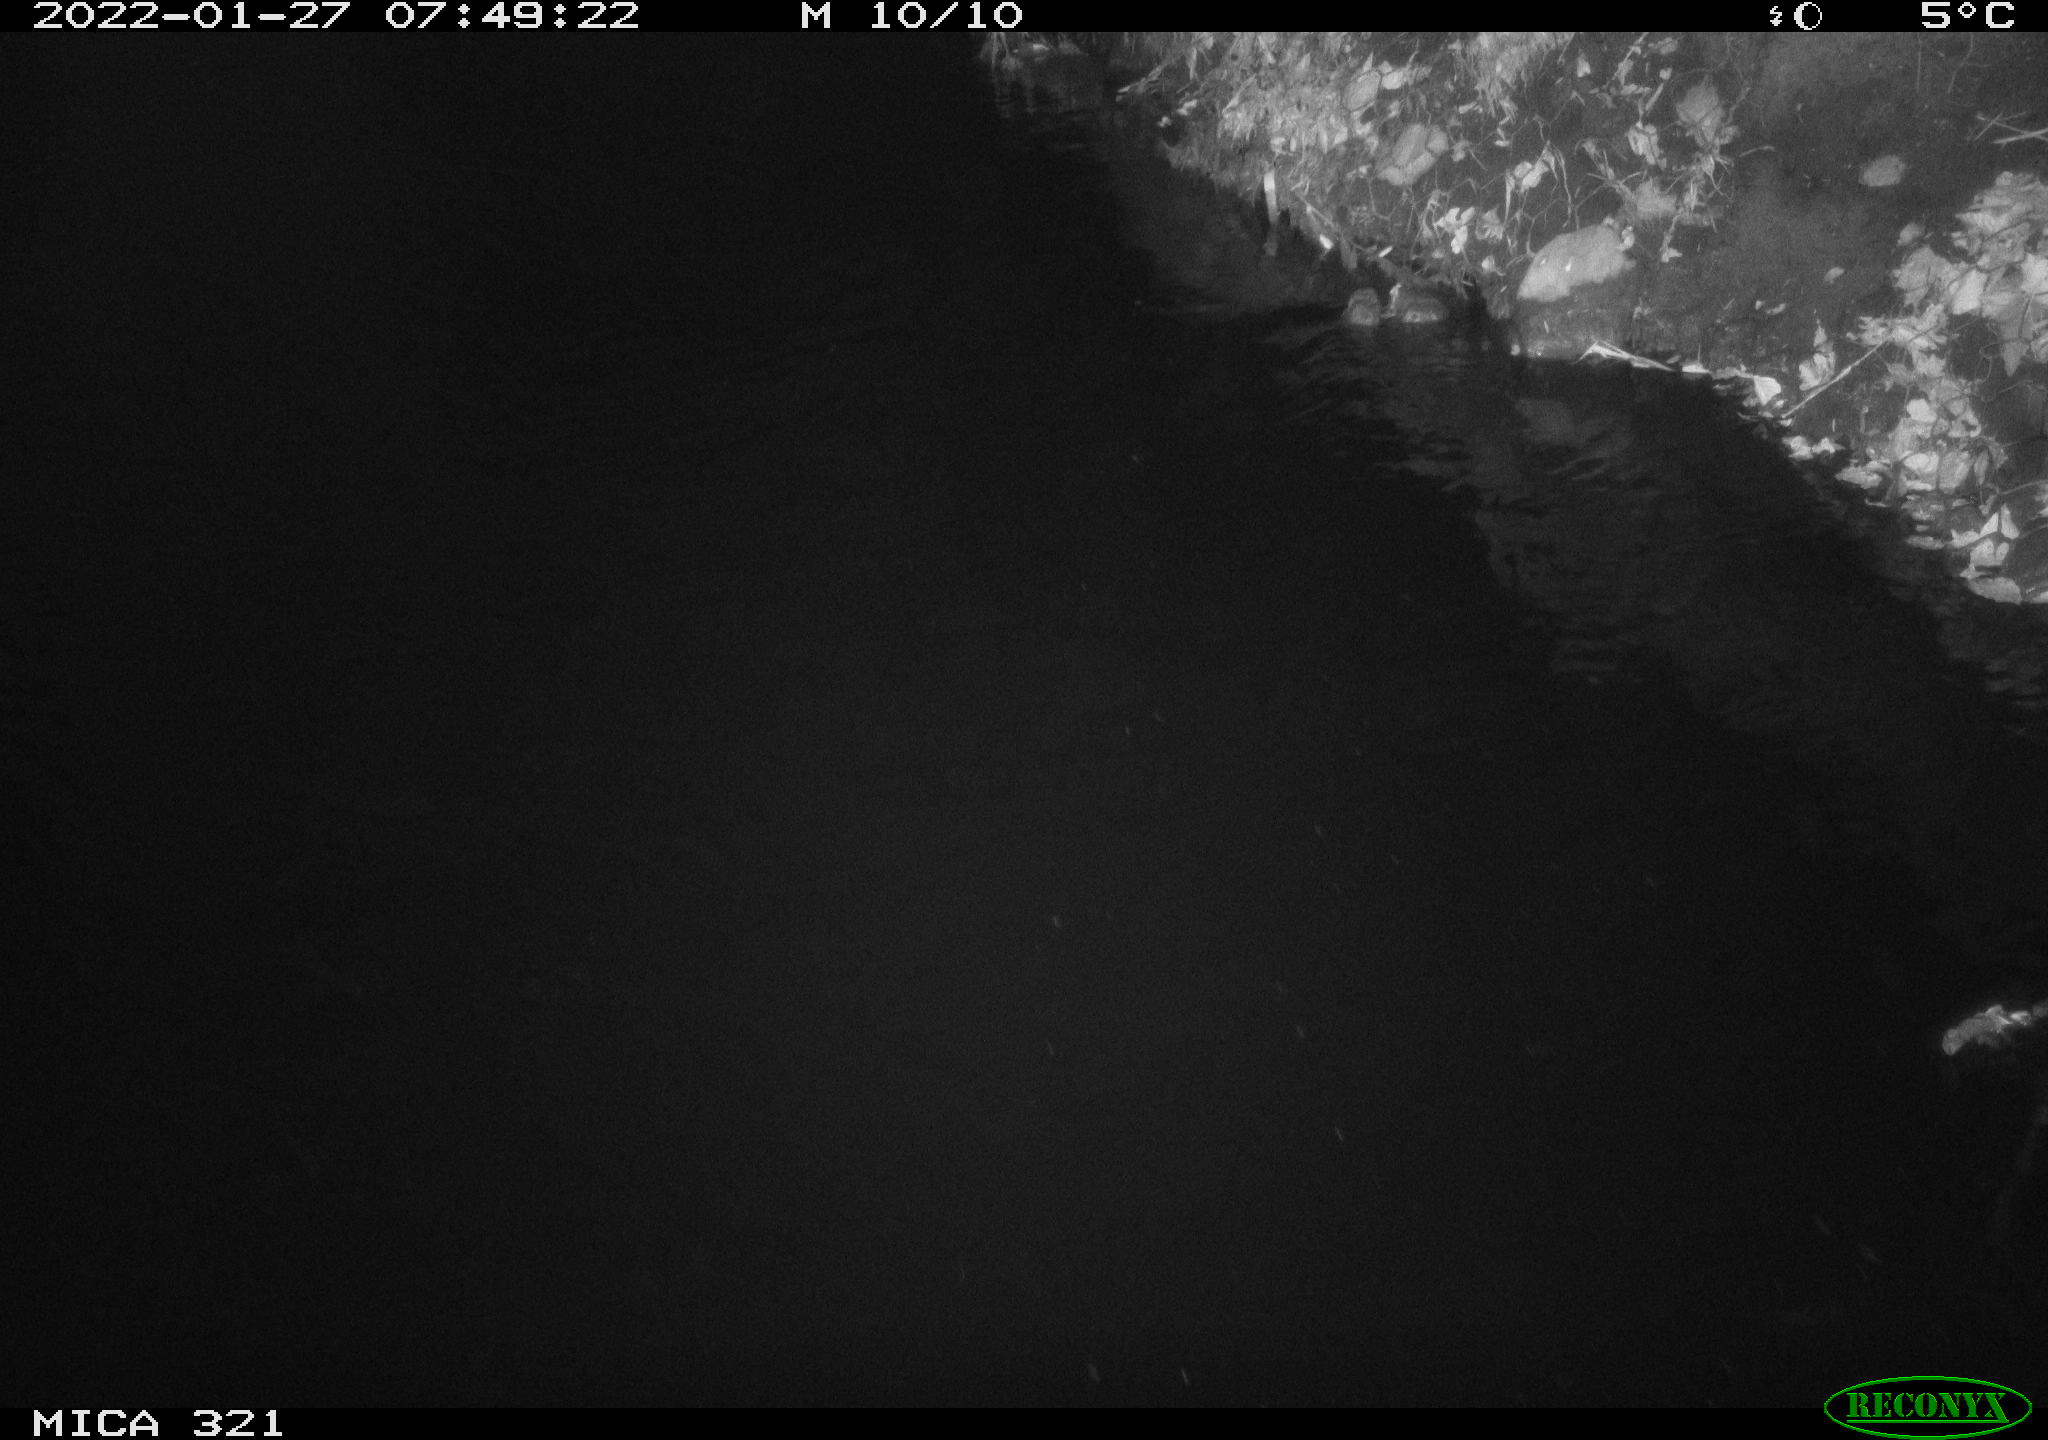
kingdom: Animalia
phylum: Chordata
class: Aves
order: Anseriformes
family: Anatidae
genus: Anas
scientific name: Anas platyrhynchos
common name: Mallard
